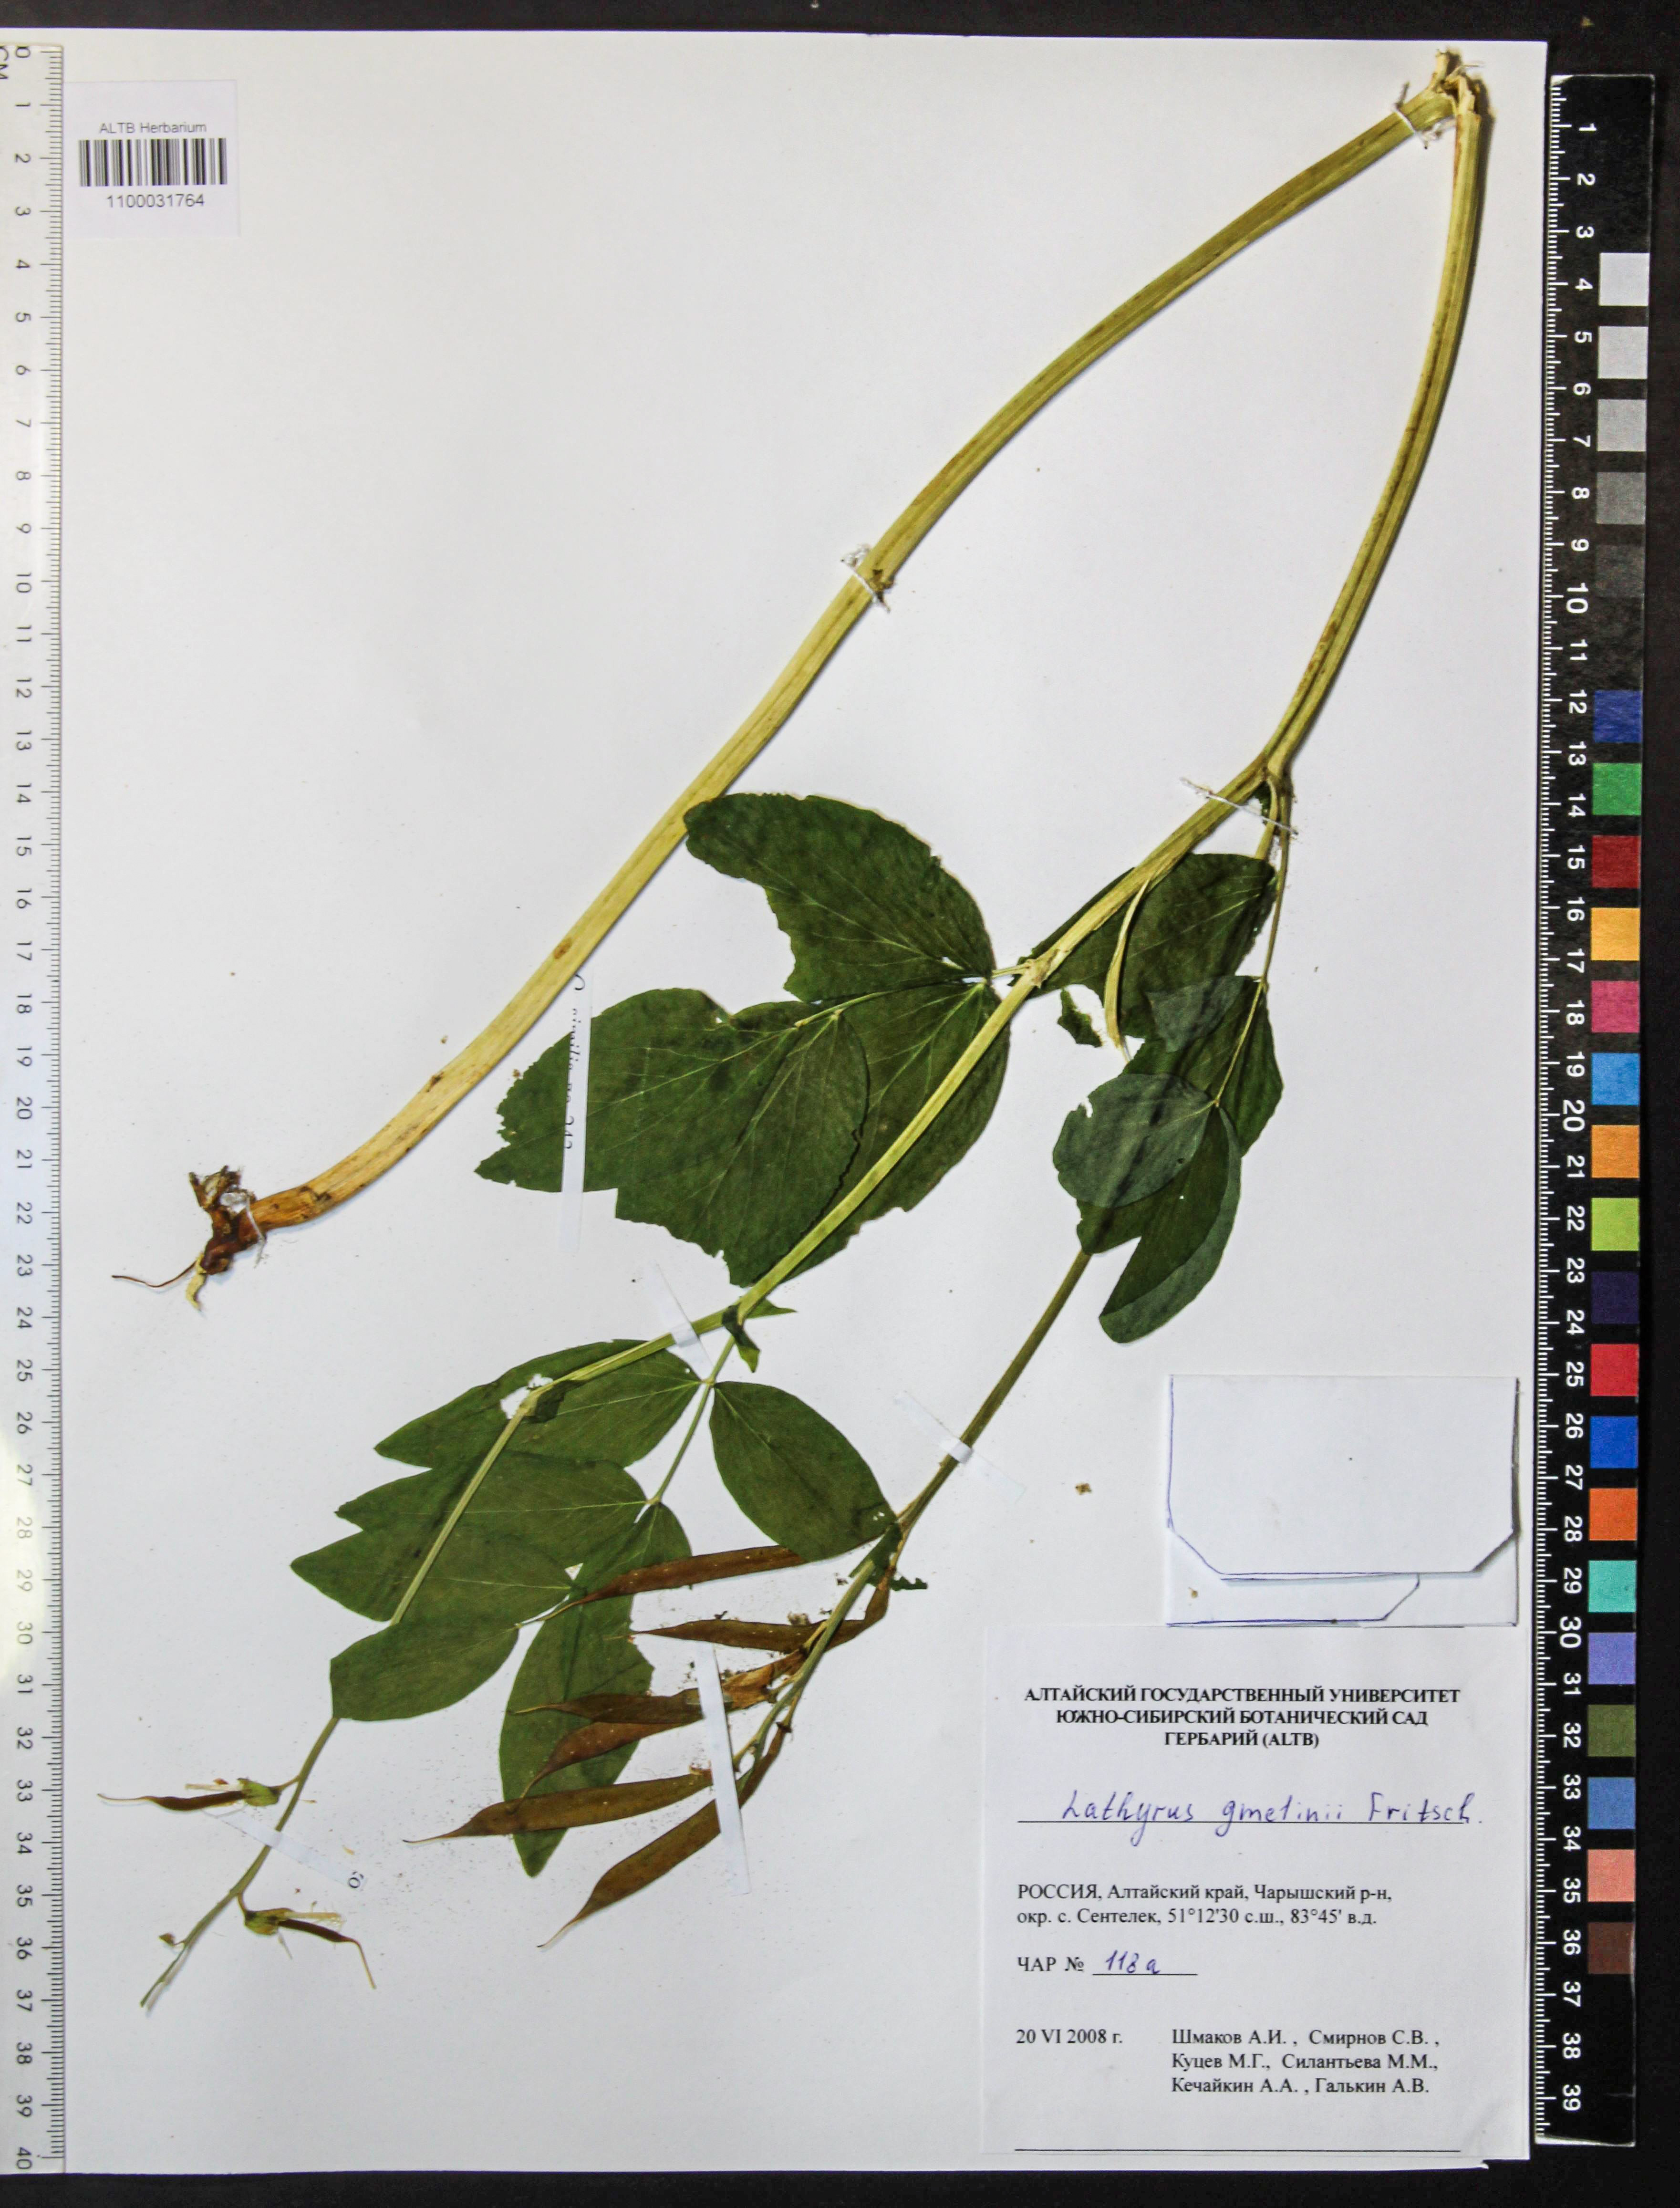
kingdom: Plantae
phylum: Tracheophyta
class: Magnoliopsida
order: Fabales
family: Fabaceae
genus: Lathyrus
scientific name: Lathyrus gmelinii
